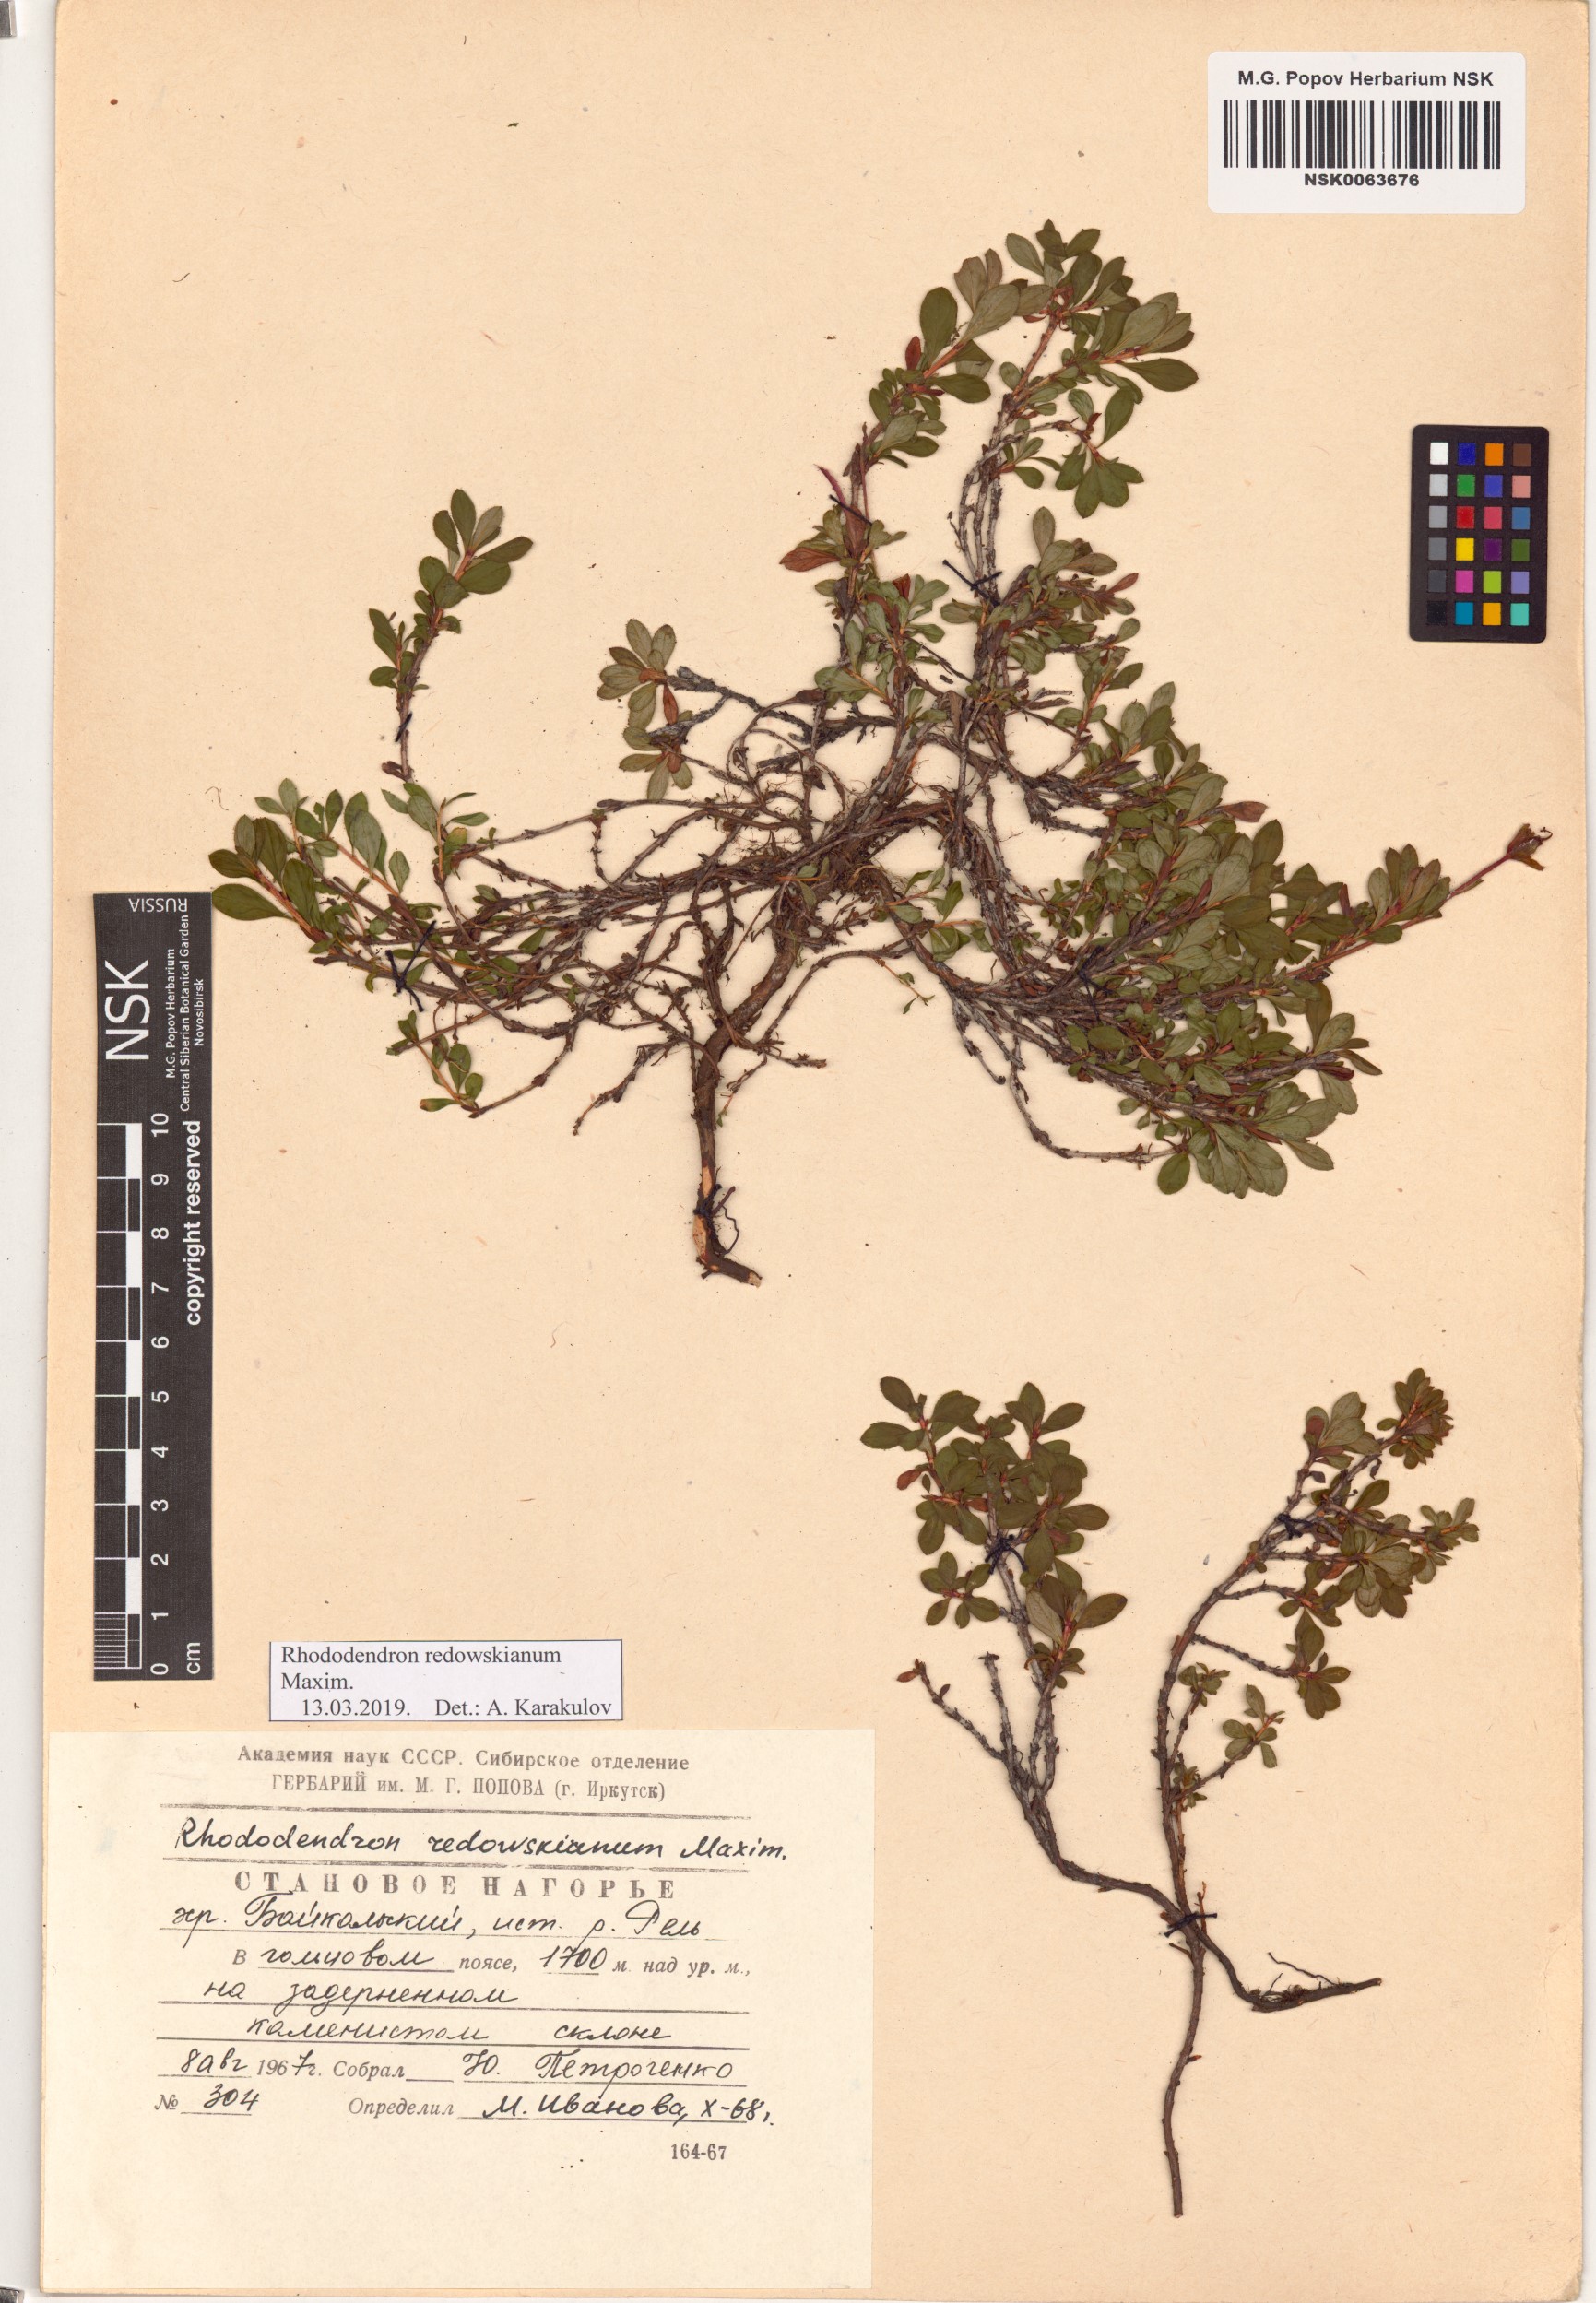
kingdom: Plantae
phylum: Tracheophyta
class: Magnoliopsida
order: Ericales
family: Ericaceae
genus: Rhododendron
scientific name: Rhododendron redowskianum
